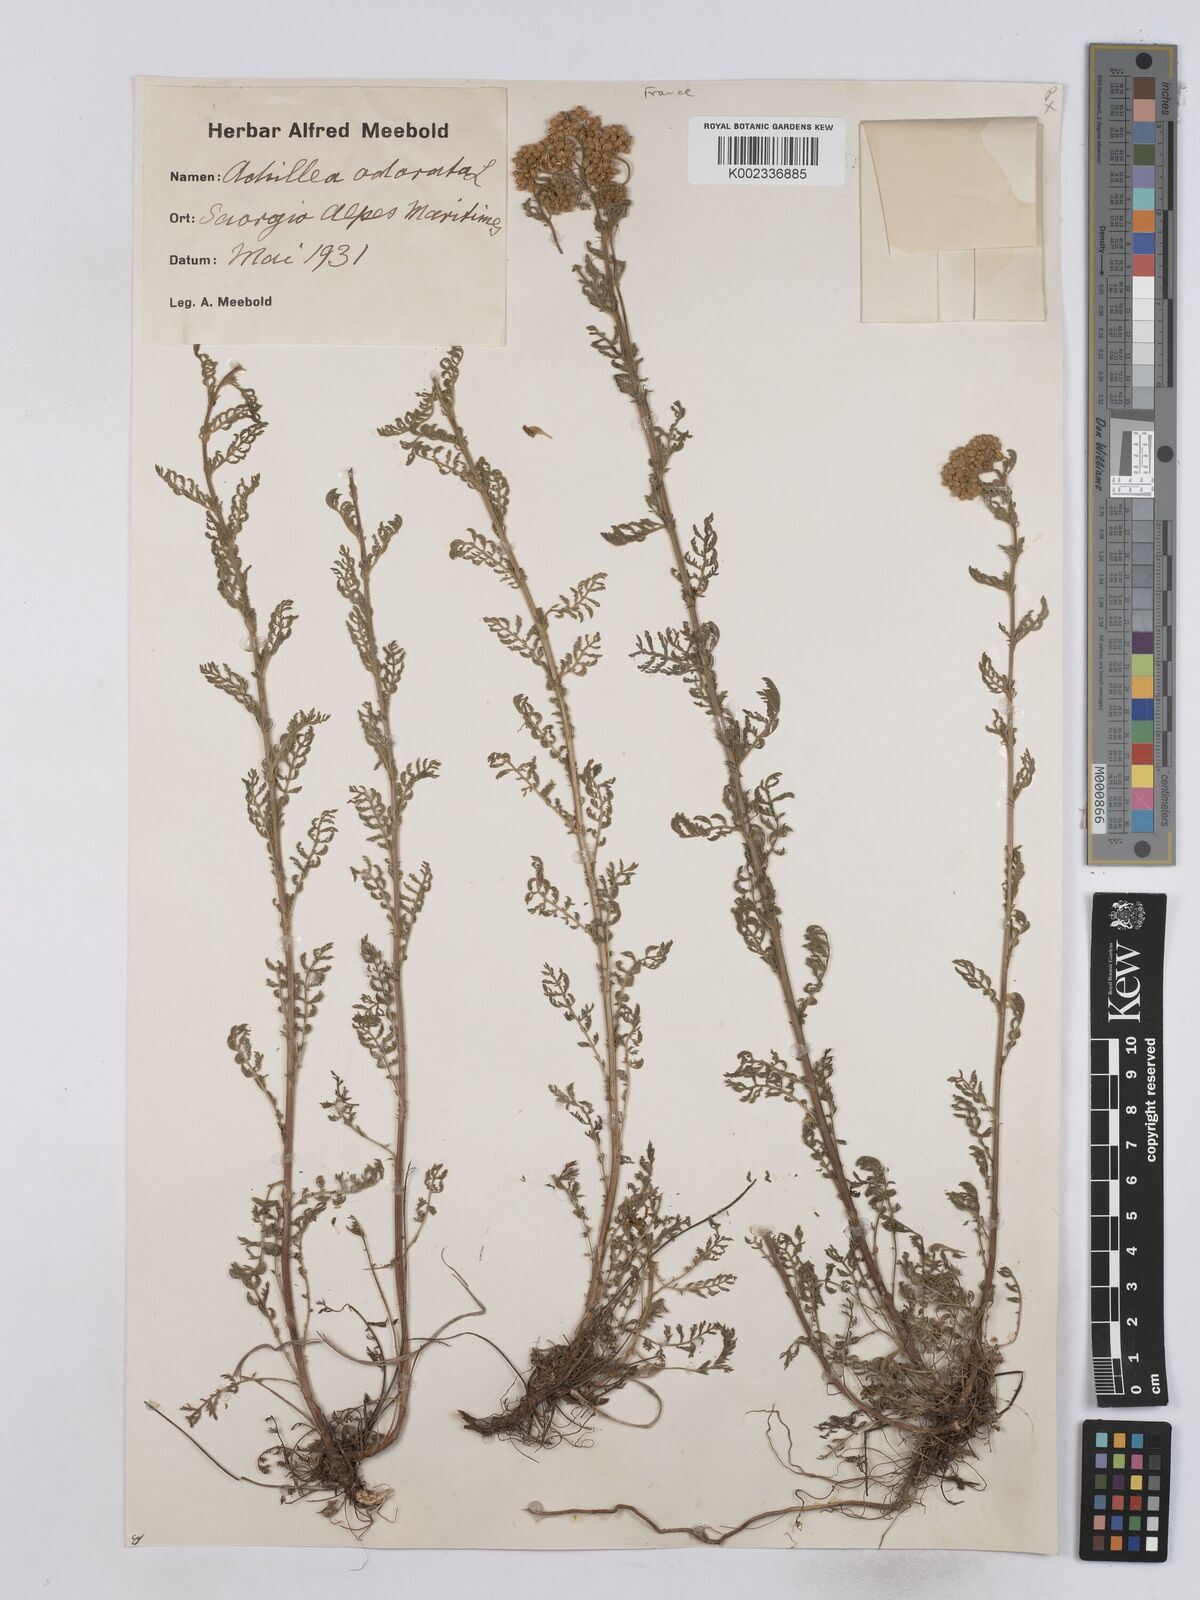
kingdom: Plantae
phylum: Tracheophyta
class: Magnoliopsida
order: Asterales
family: Asteraceae
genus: Achillea
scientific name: Achillea odorata
